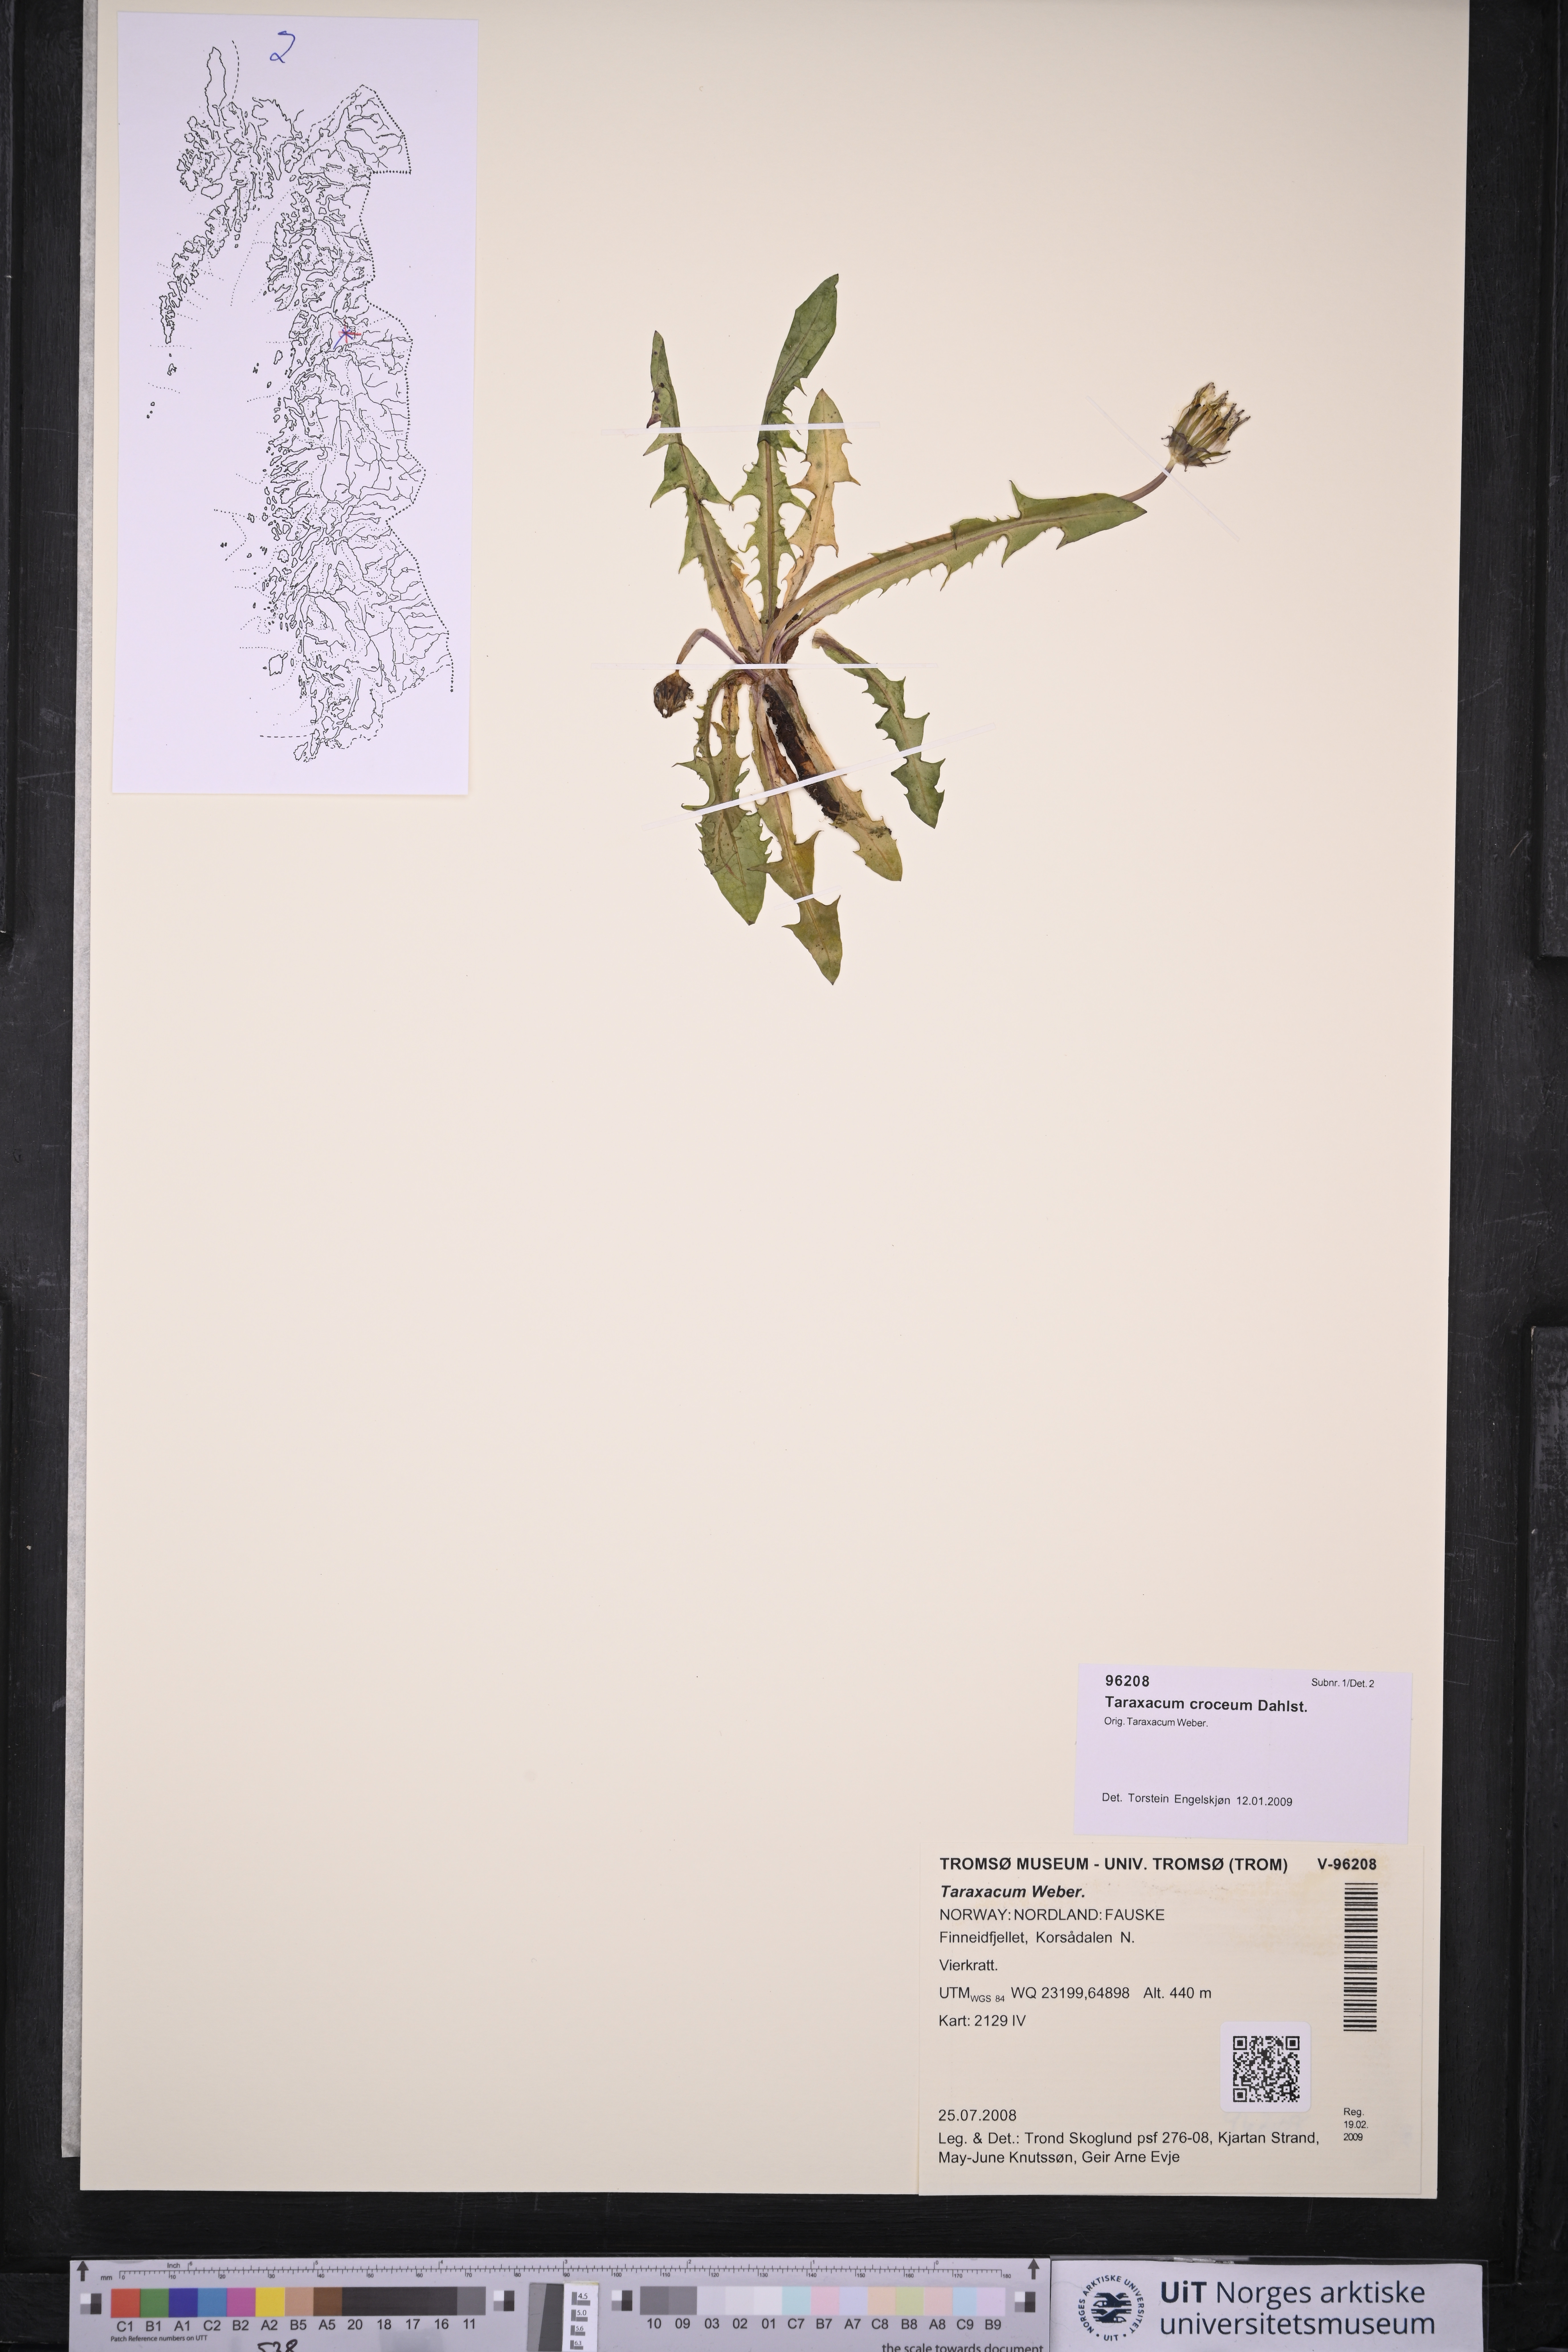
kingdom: Plantae
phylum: Tracheophyta
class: Magnoliopsida
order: Asterales
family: Asteraceae
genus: Taraxacum
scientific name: Taraxacum croceum
